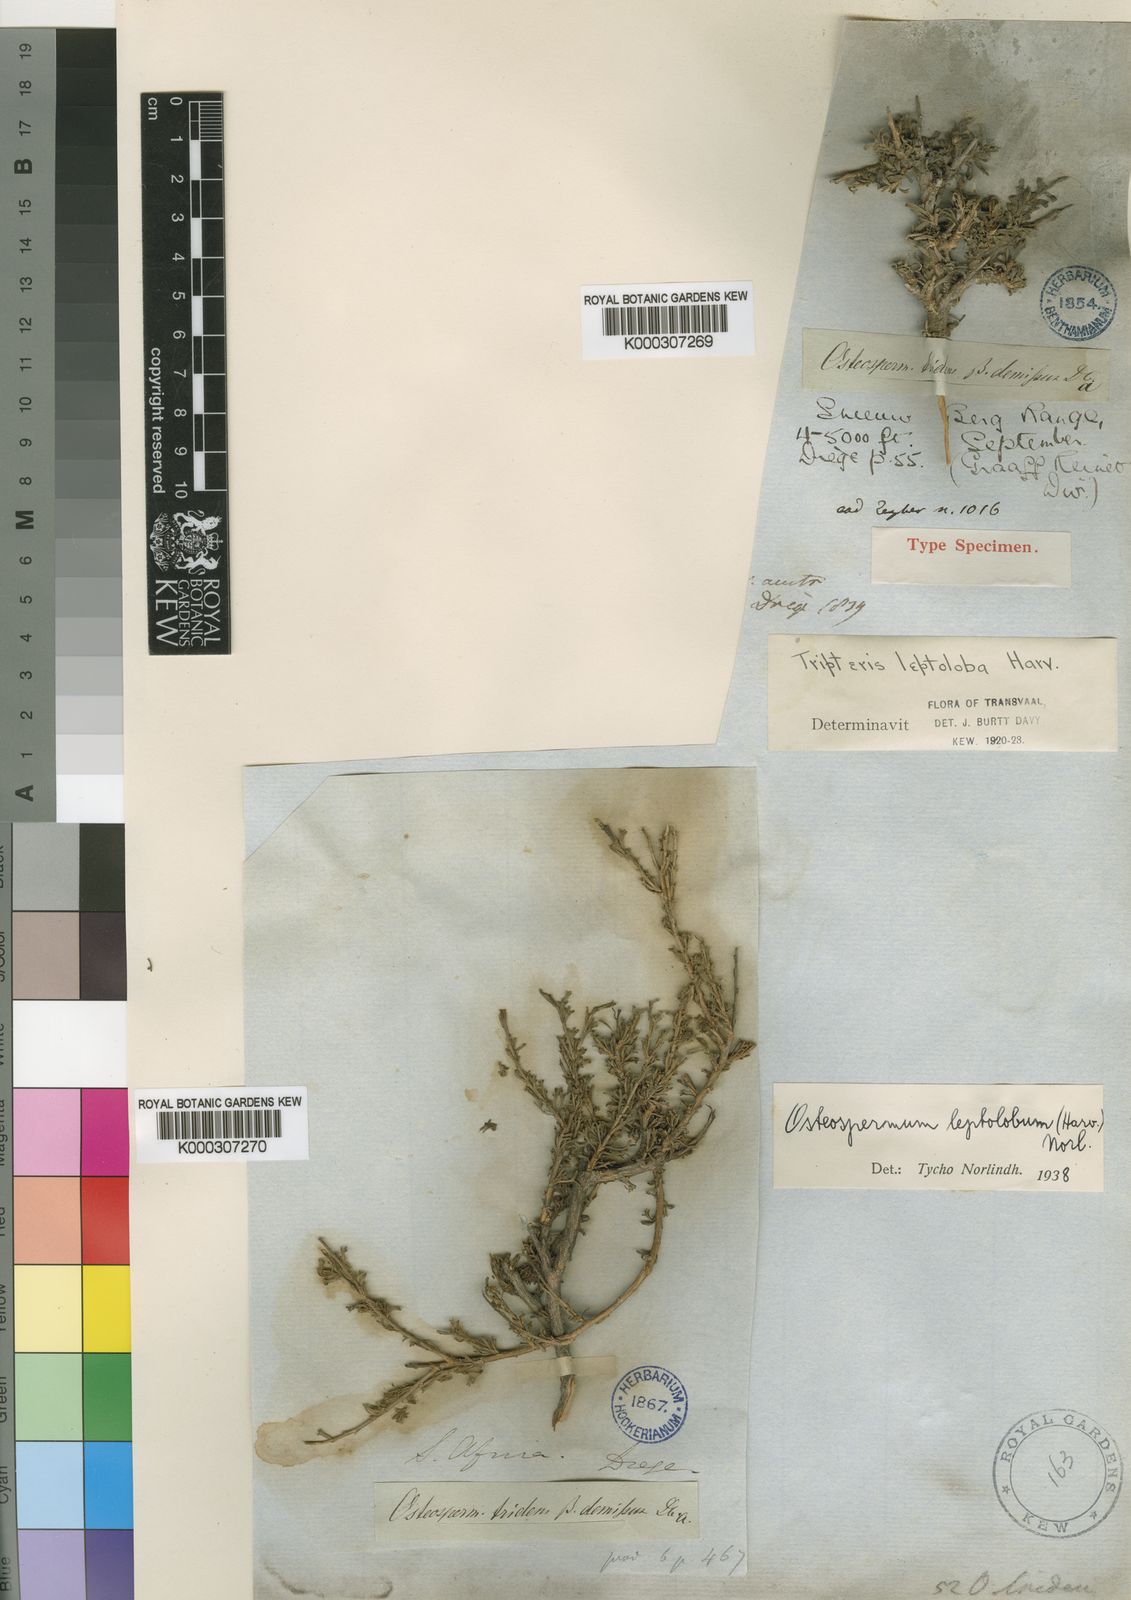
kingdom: Plantae
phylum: Tracheophyta
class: Magnoliopsida
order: Asterales
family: Asteraceae
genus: Osteospermum
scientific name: Osteospermum leptolobum
